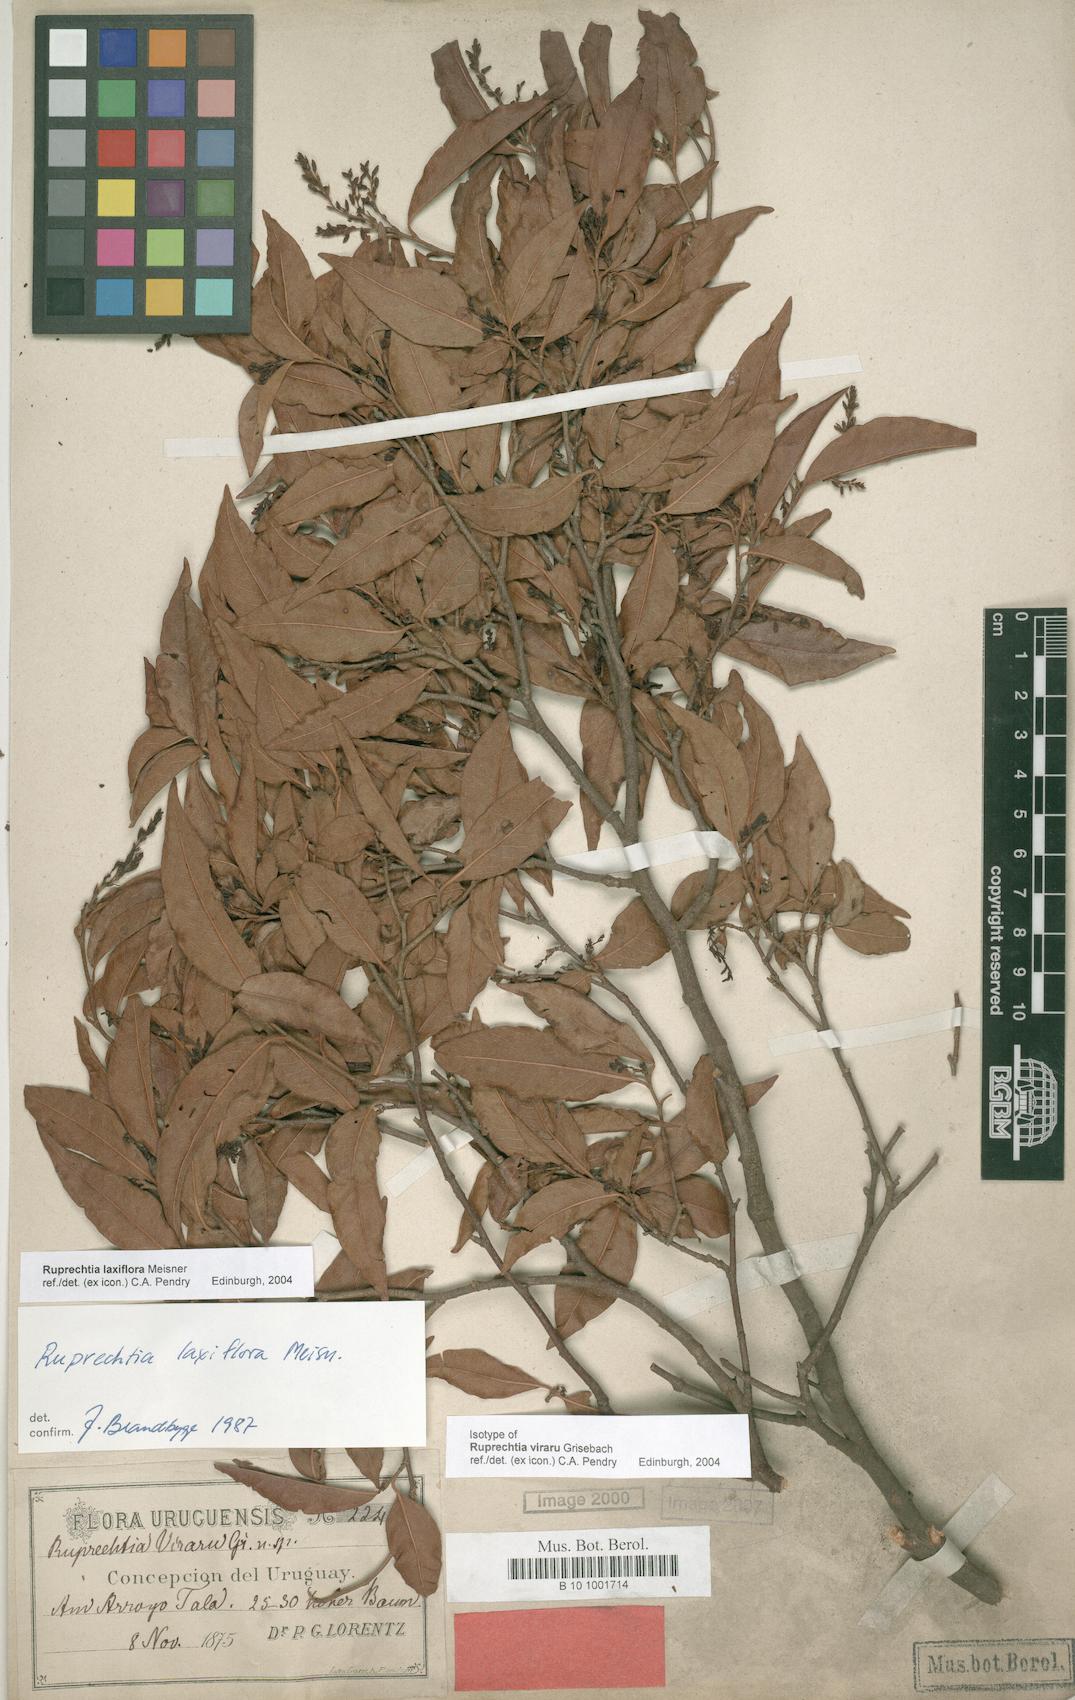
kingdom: Plantae
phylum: Tracheophyta
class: Magnoliopsida
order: Caryophyllales
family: Polygonaceae
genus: Ruprechtia
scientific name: Ruprechtia laxiflora
